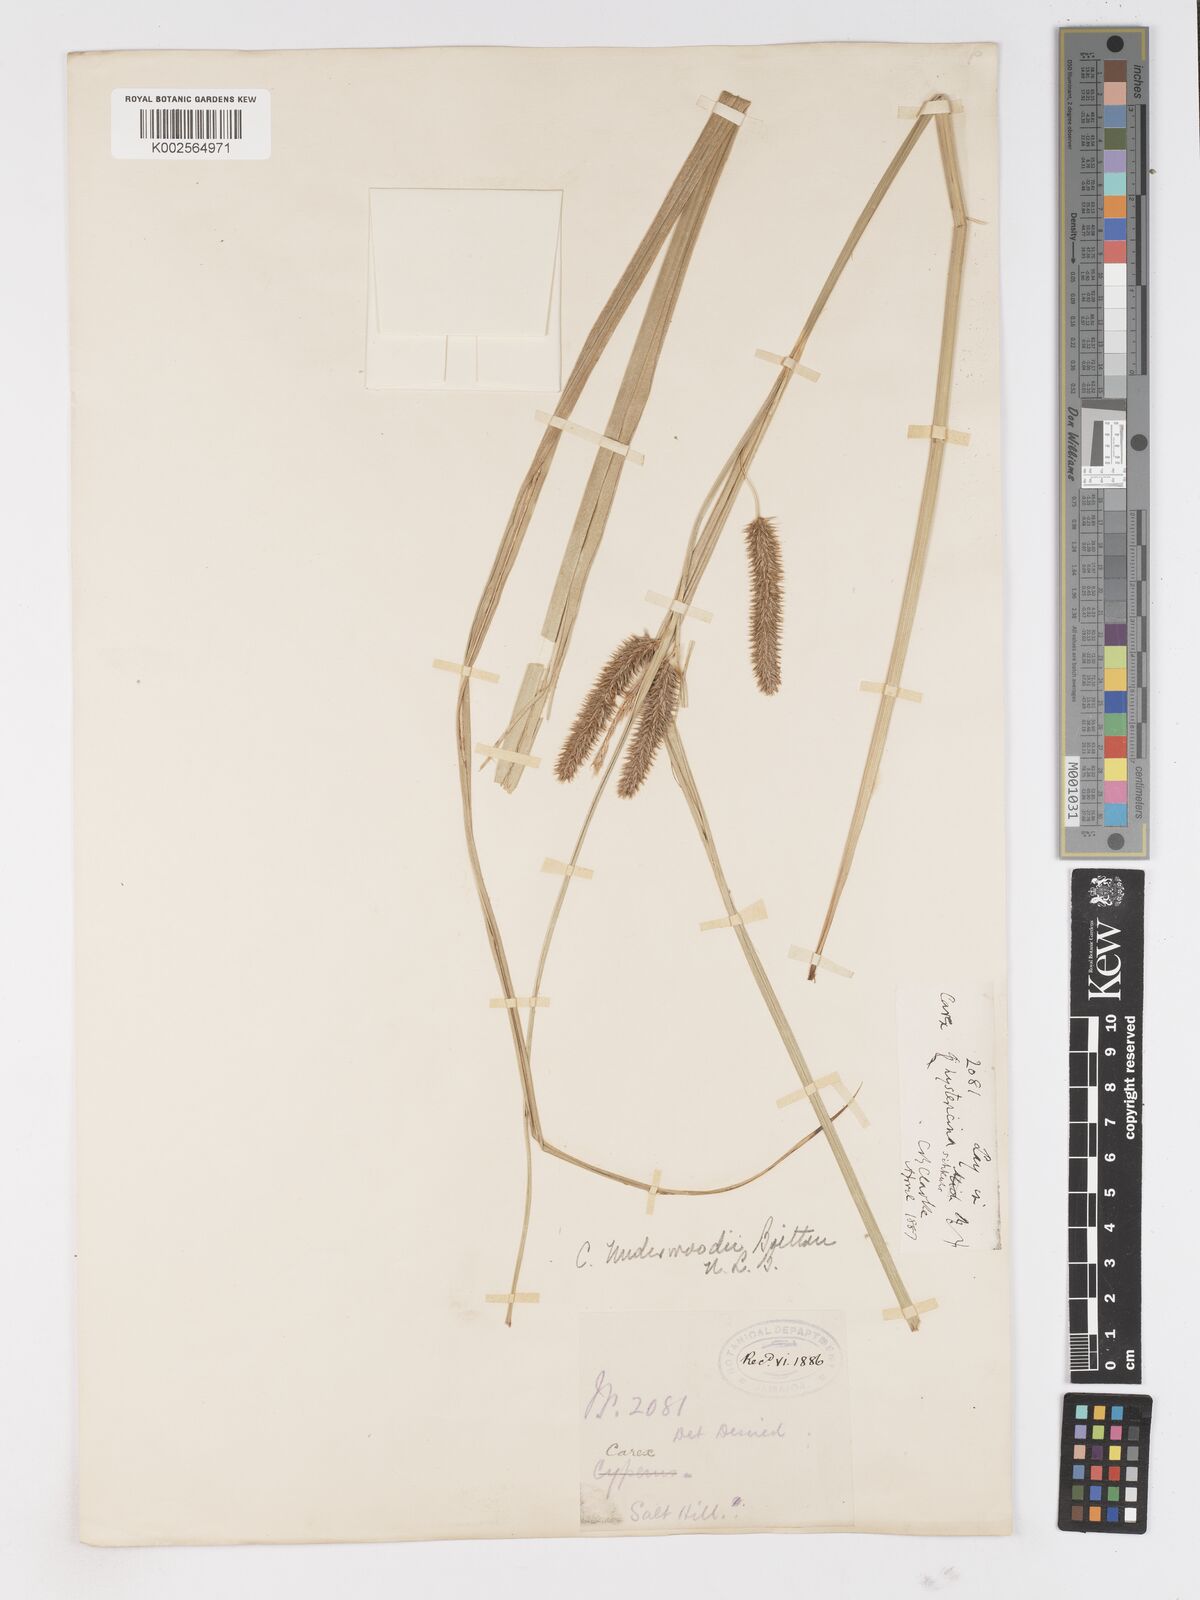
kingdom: Plantae
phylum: Tracheophyta
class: Liliopsida
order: Poales
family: Cyperaceae
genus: Carex
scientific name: Carex polysticha
